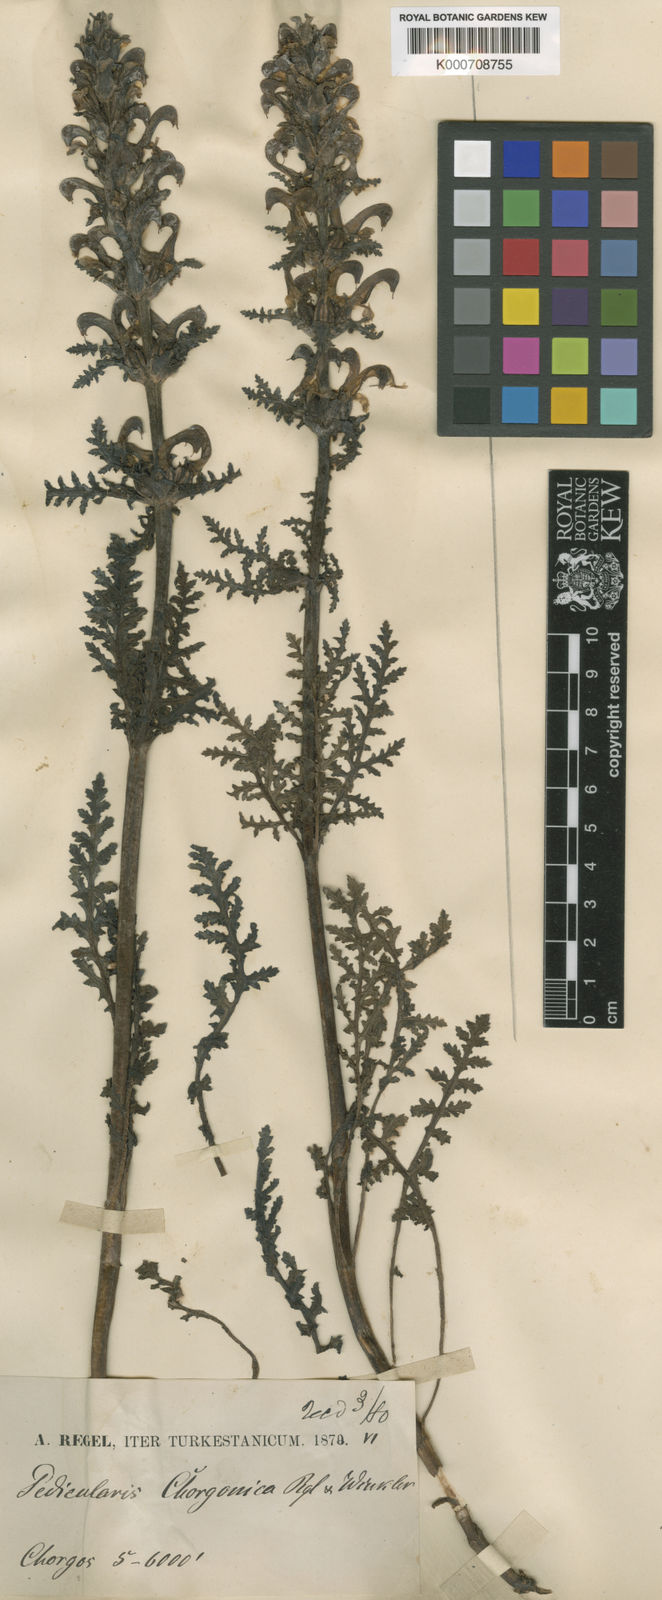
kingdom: Plantae
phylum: Tracheophyta
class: Magnoliopsida
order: Lamiales
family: Orobanchaceae
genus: Pedicularis
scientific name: Pedicularis chorgonica
